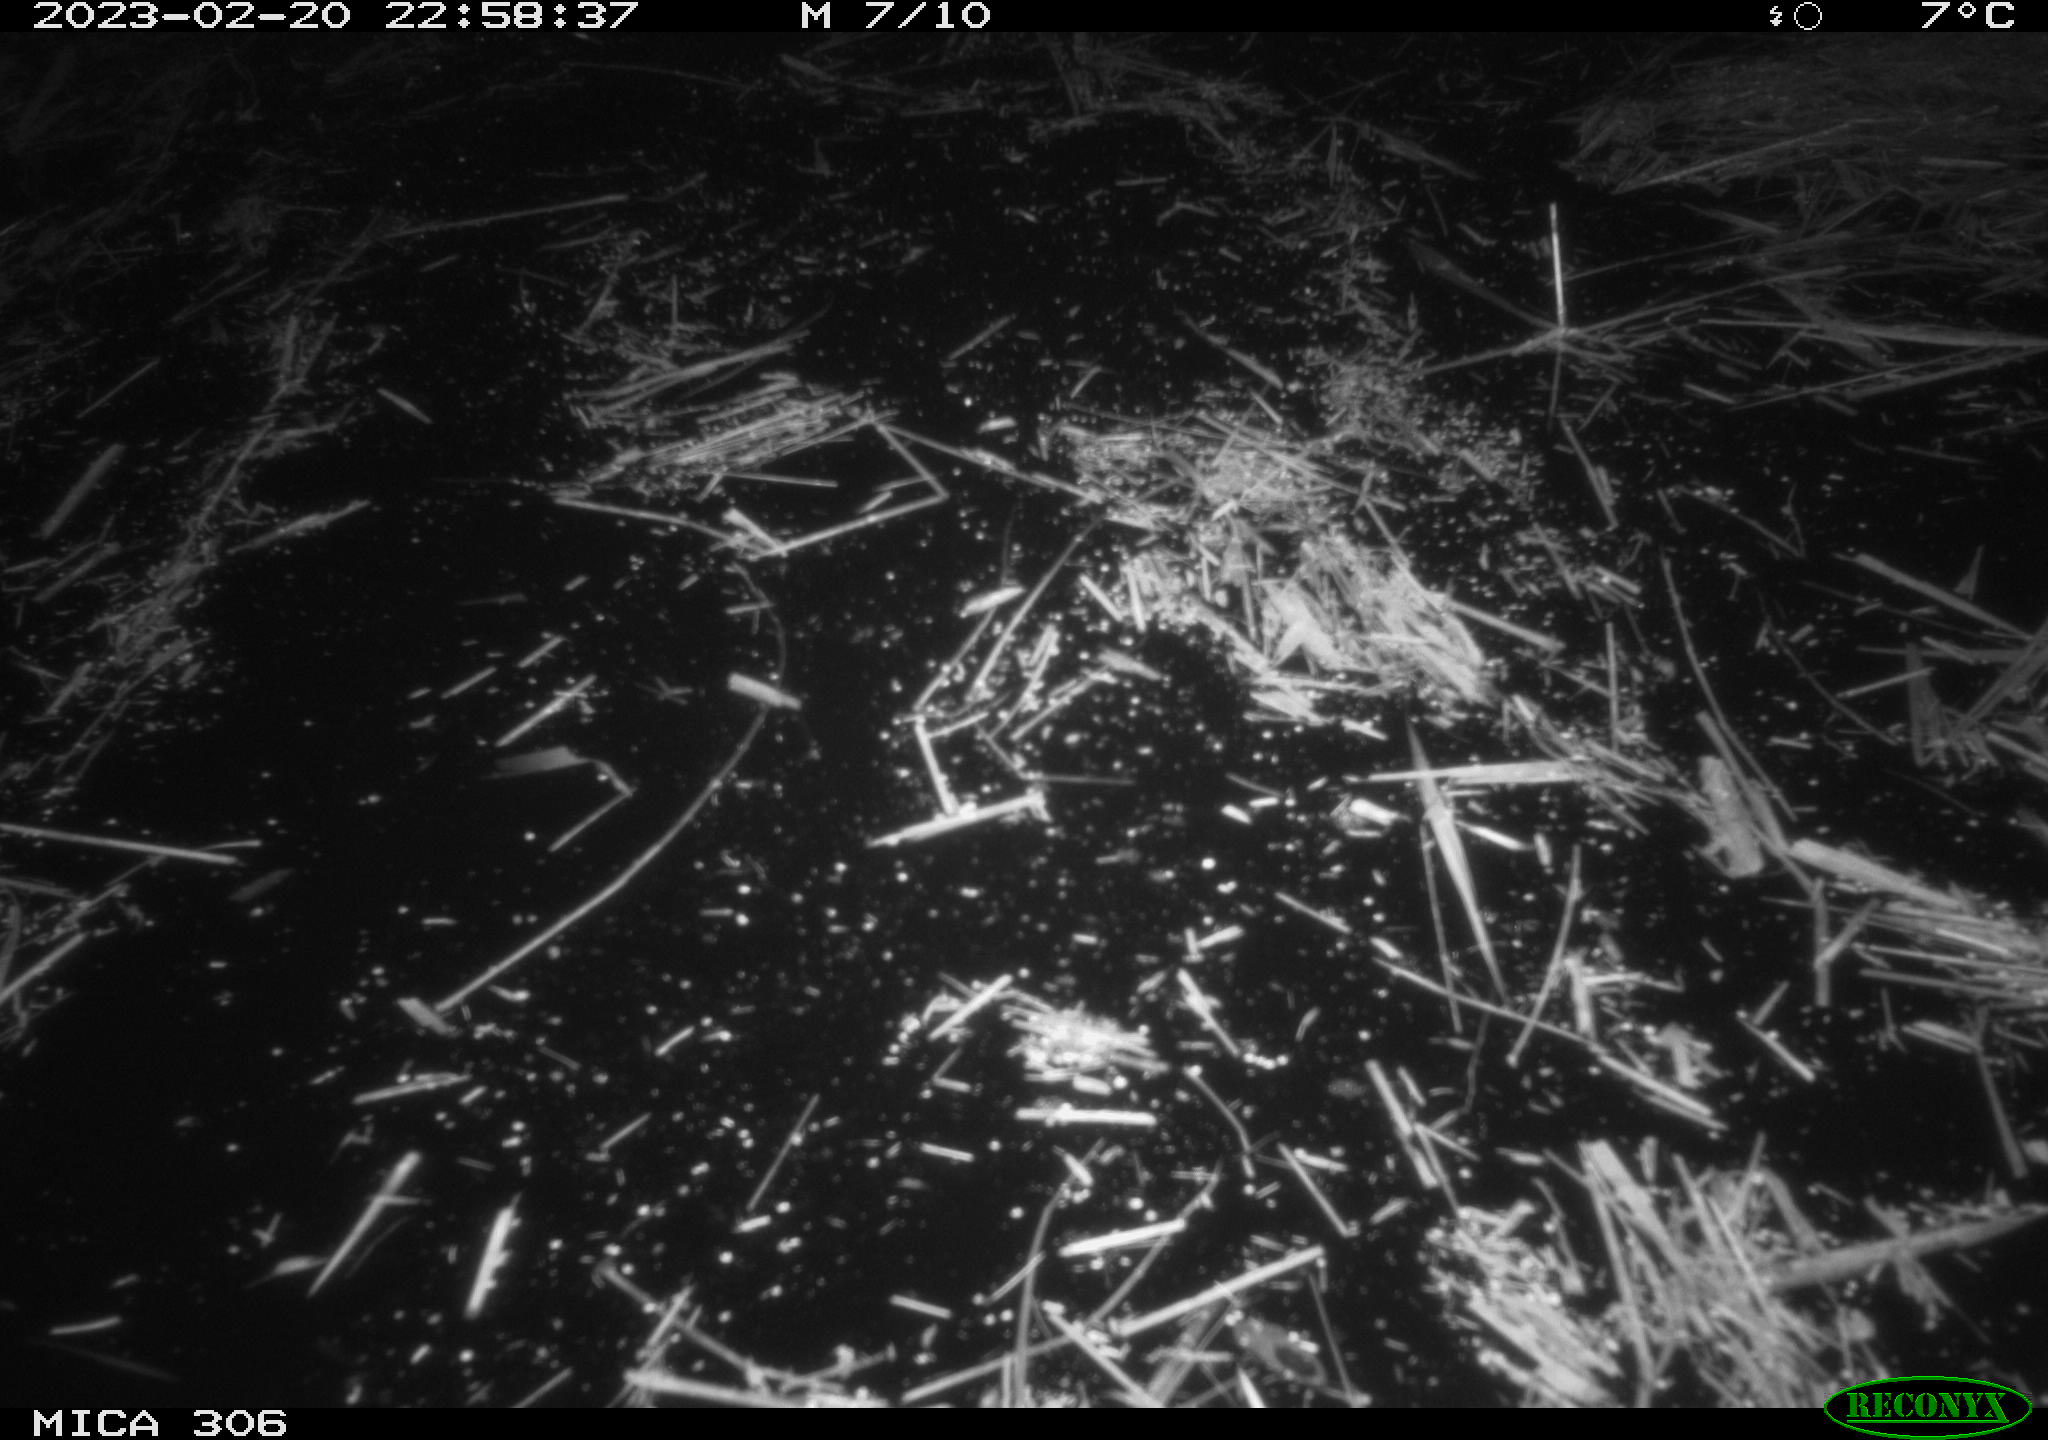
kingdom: Animalia
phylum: Chordata
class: Mammalia
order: Rodentia
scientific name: Rodentia
